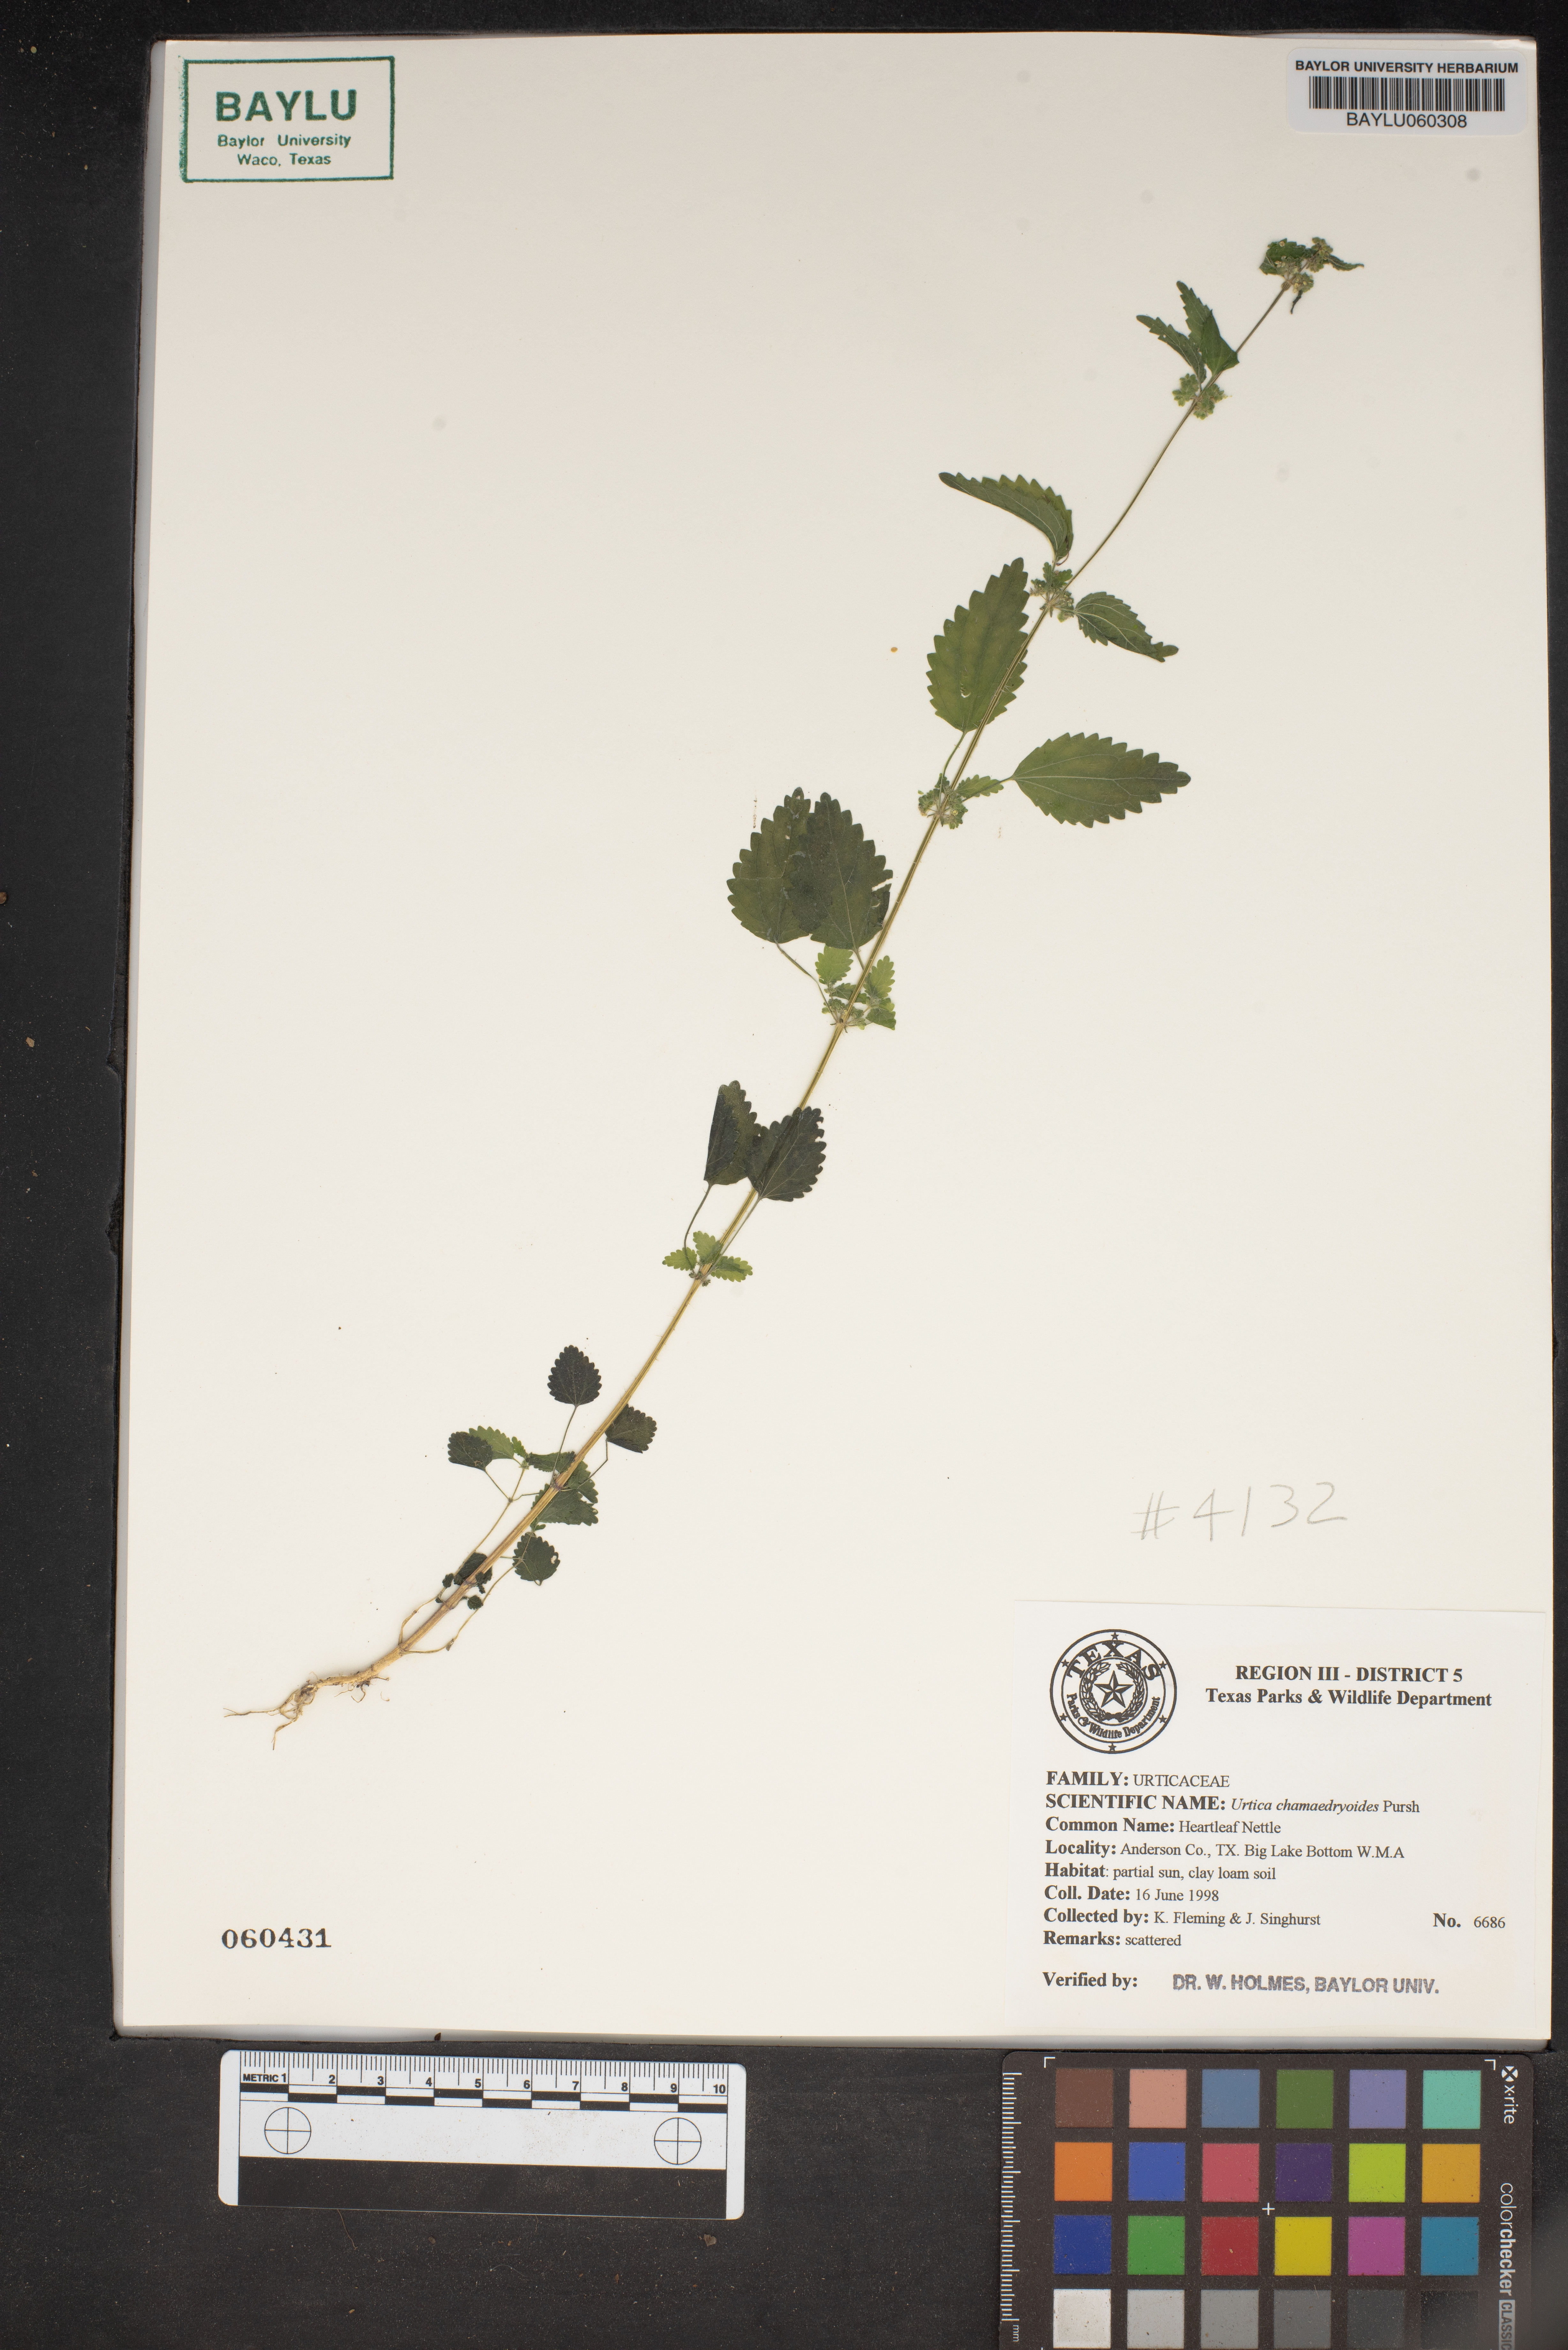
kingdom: Plantae
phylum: Tracheophyta
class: Magnoliopsida
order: Rosales
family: Urticaceae
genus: Urtica
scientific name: Urtica chamaedryoides
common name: Heart-leaf nettle
